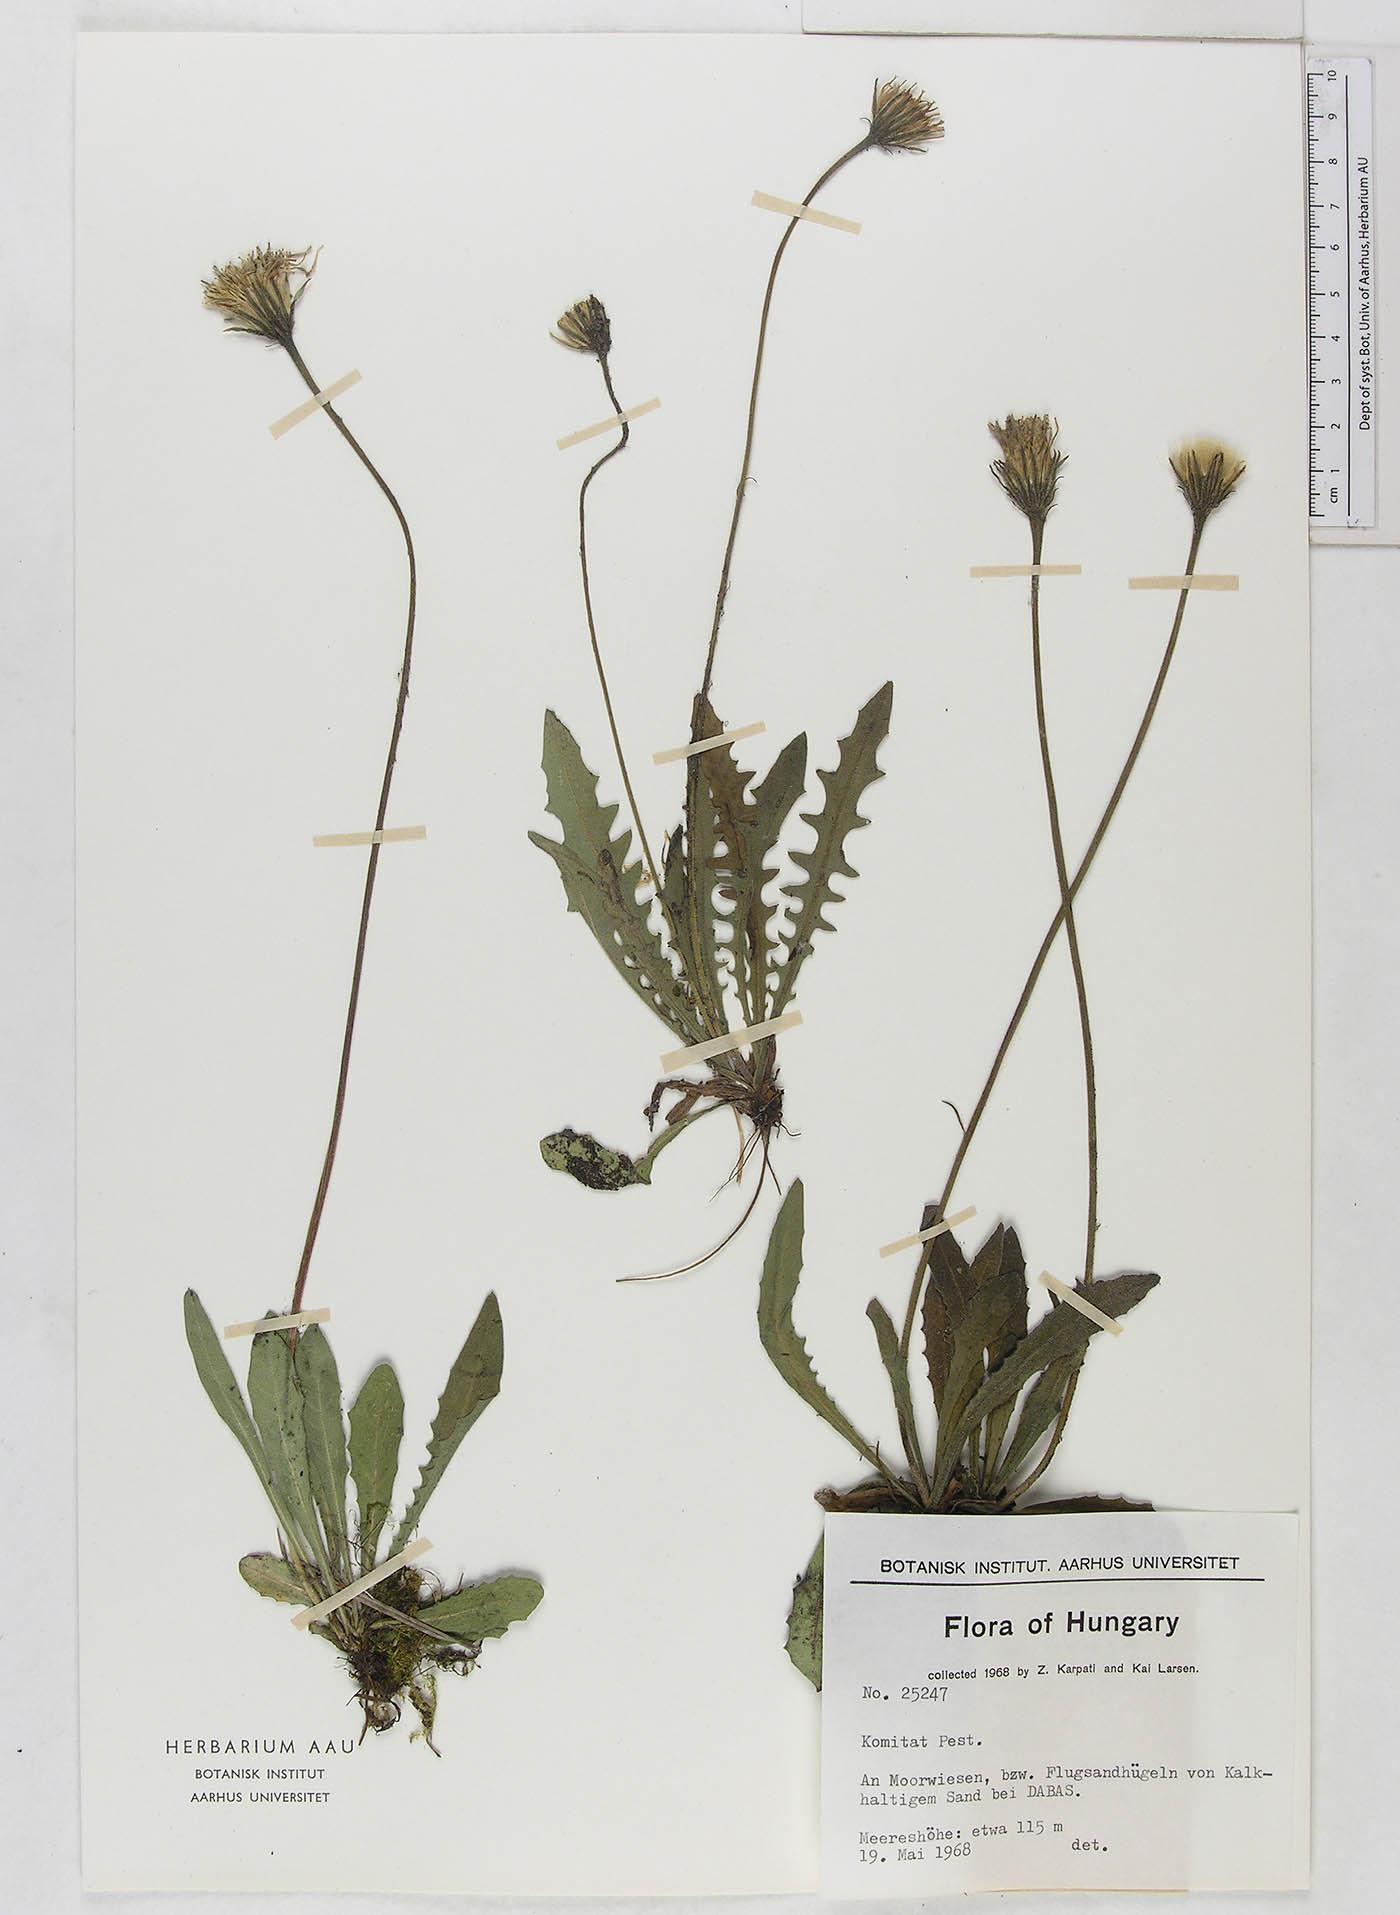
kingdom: Plantae
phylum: Tracheophyta
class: Magnoliopsida
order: Asterales
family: Asteraceae
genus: Leontodon
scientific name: Leontodon
